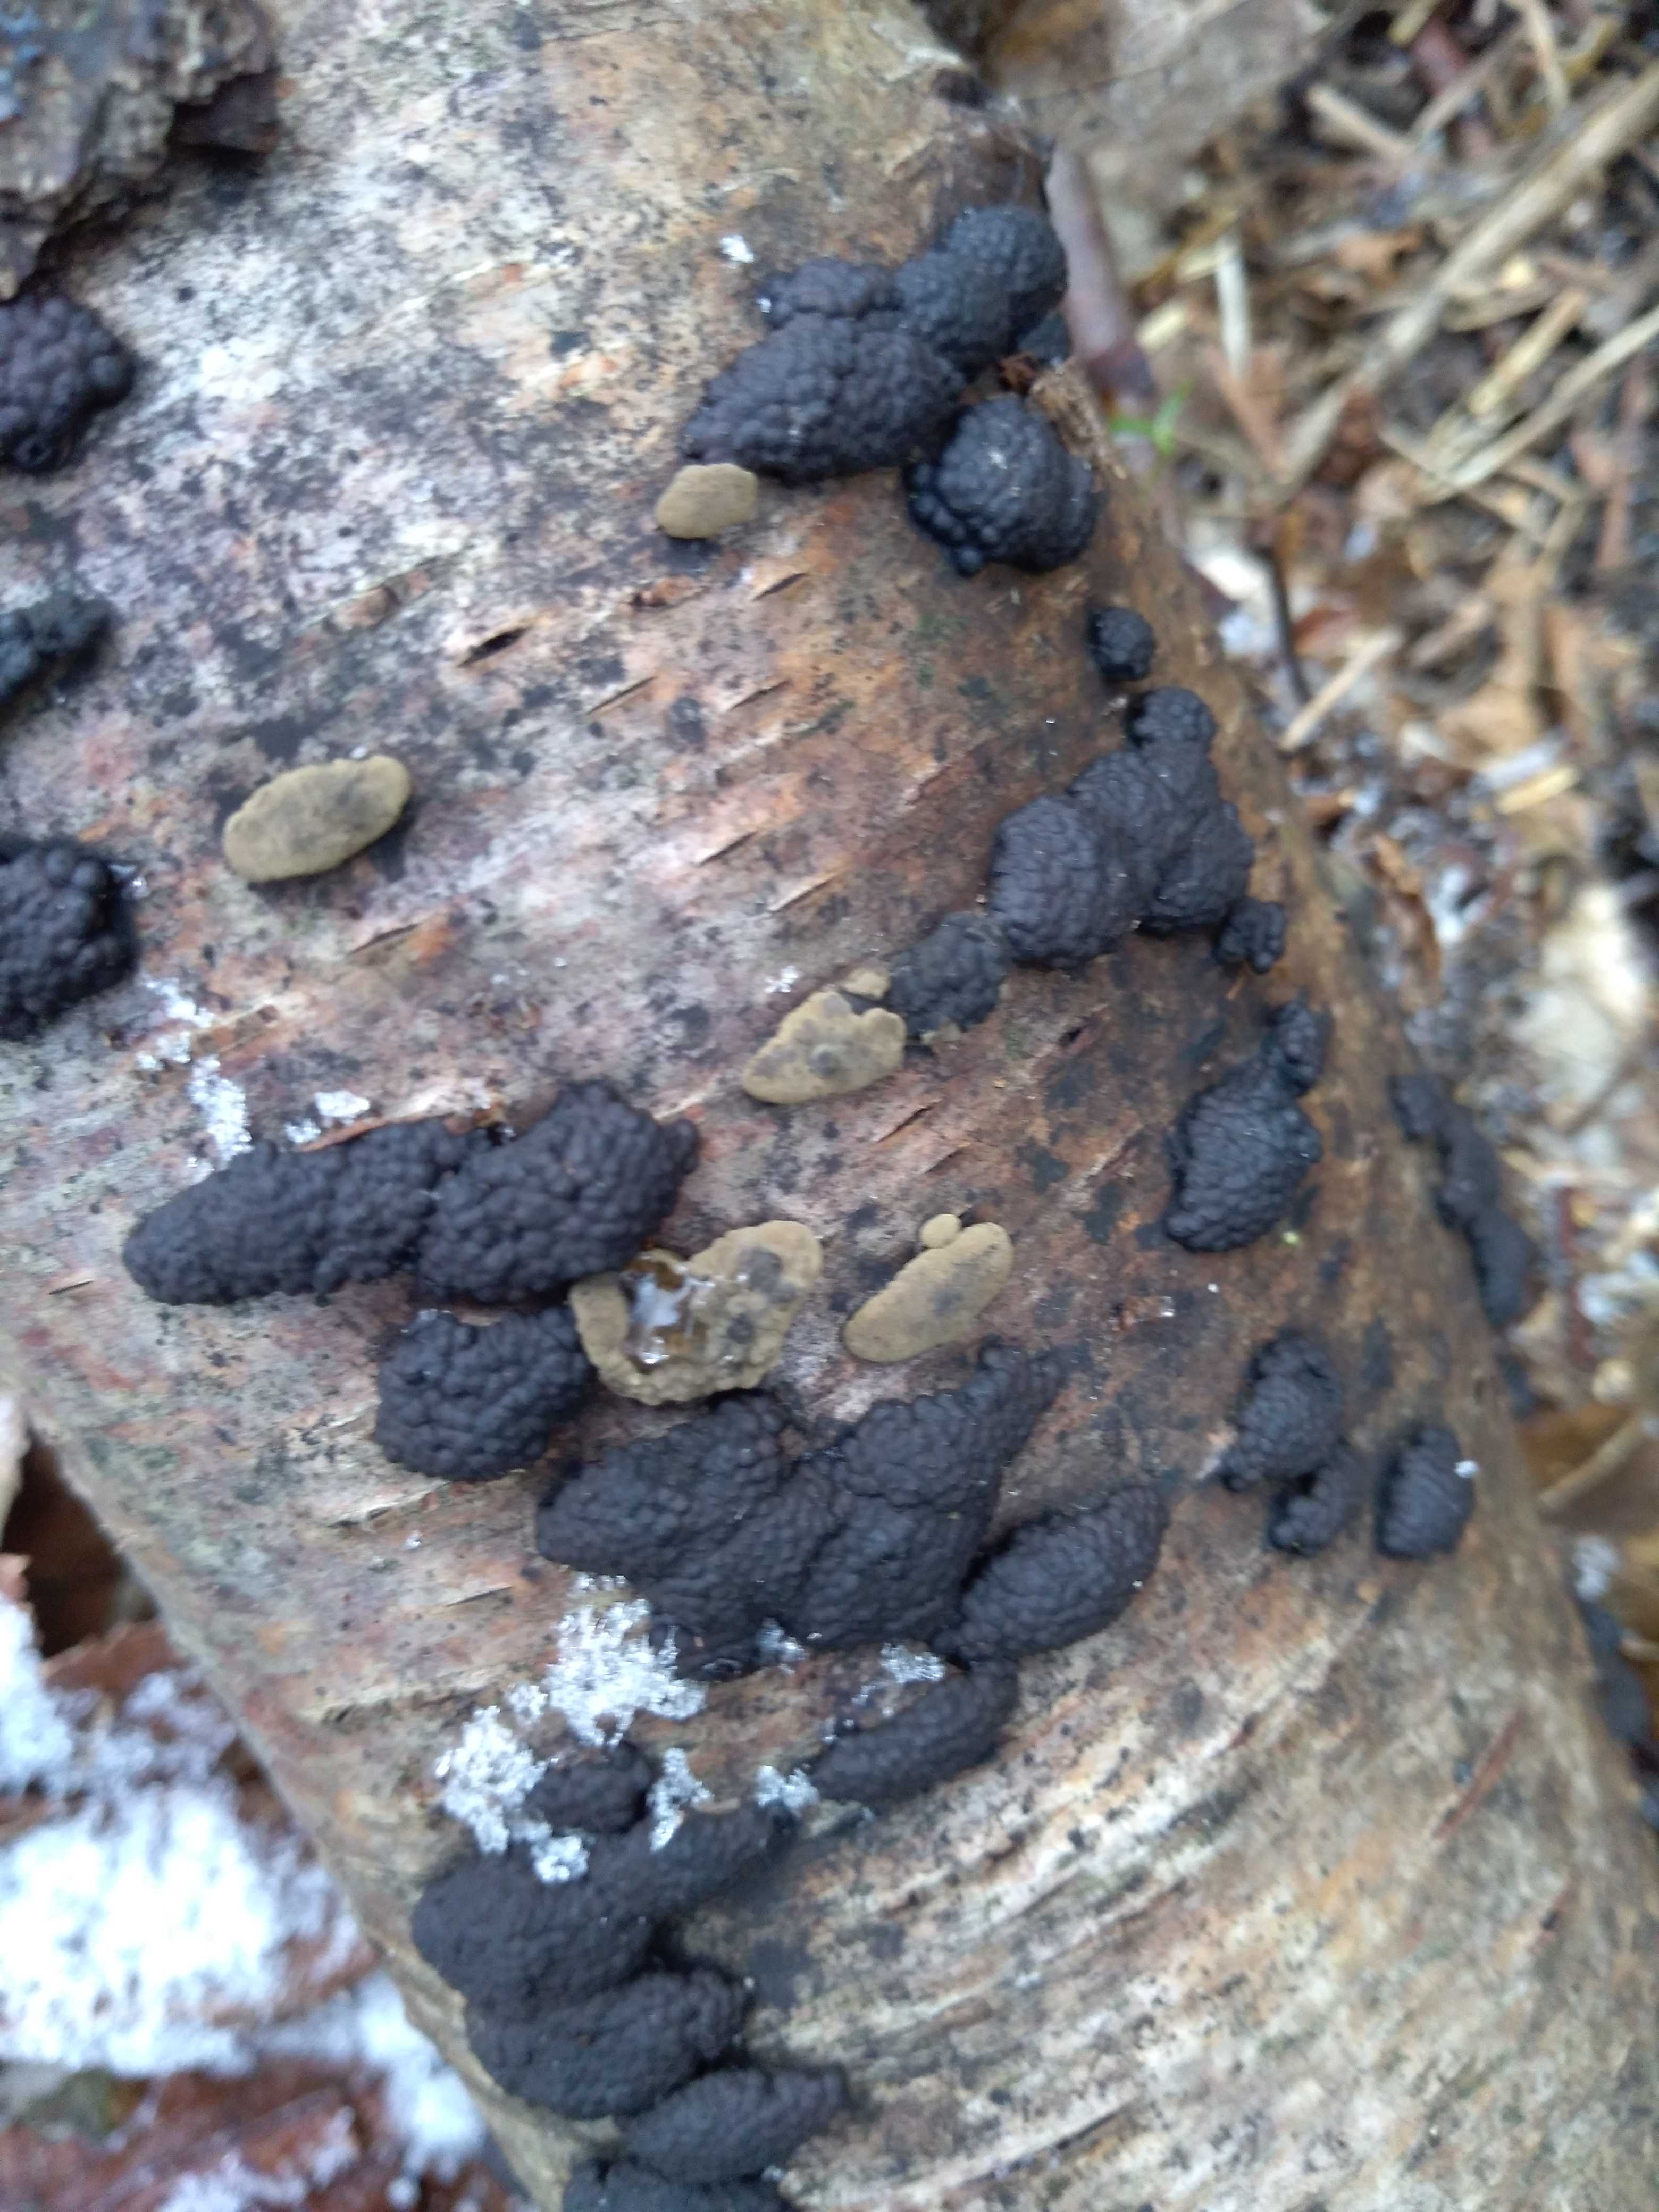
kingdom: Fungi
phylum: Ascomycota
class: Sordariomycetes
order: Xylariales
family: Hypoxylaceae
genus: Jackrogersella
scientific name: Jackrogersella multiformis
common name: foranderlig kulbær
